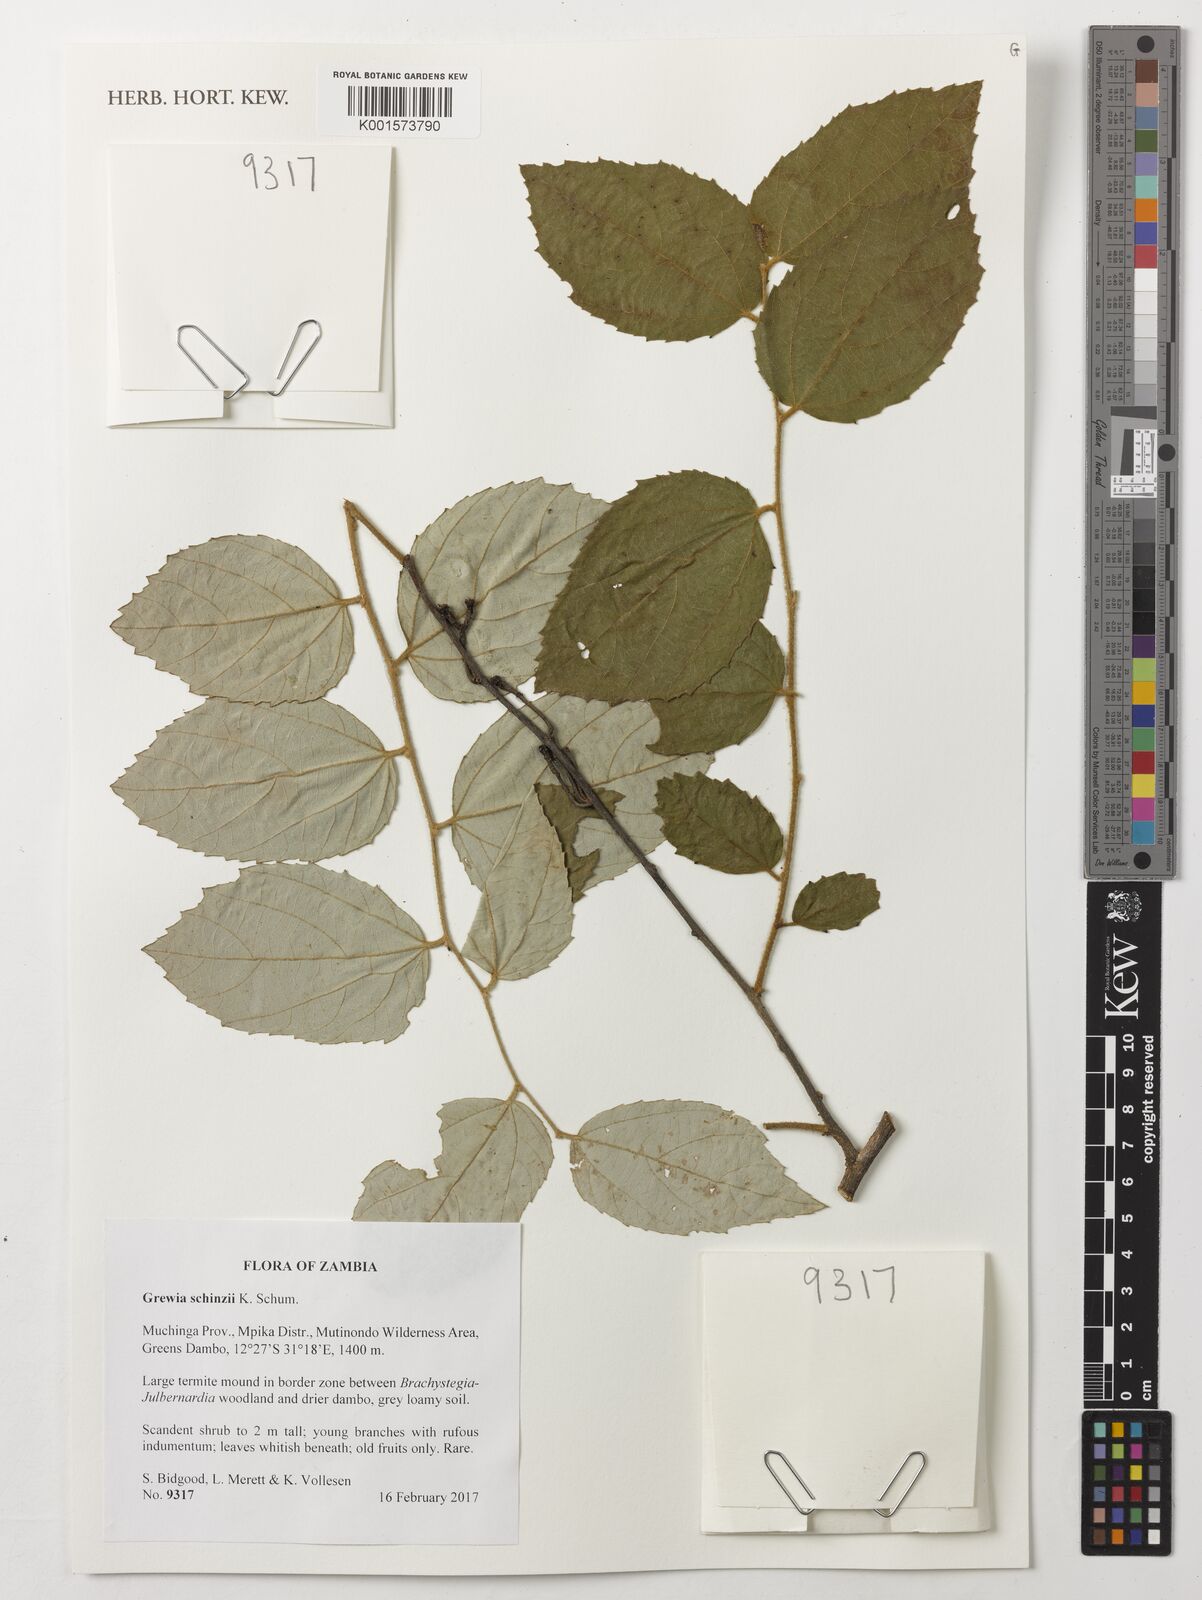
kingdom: Plantae
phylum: Tracheophyta
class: Magnoliopsida
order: Malvales
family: Malvaceae
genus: Grewia
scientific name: Grewia schinzii
